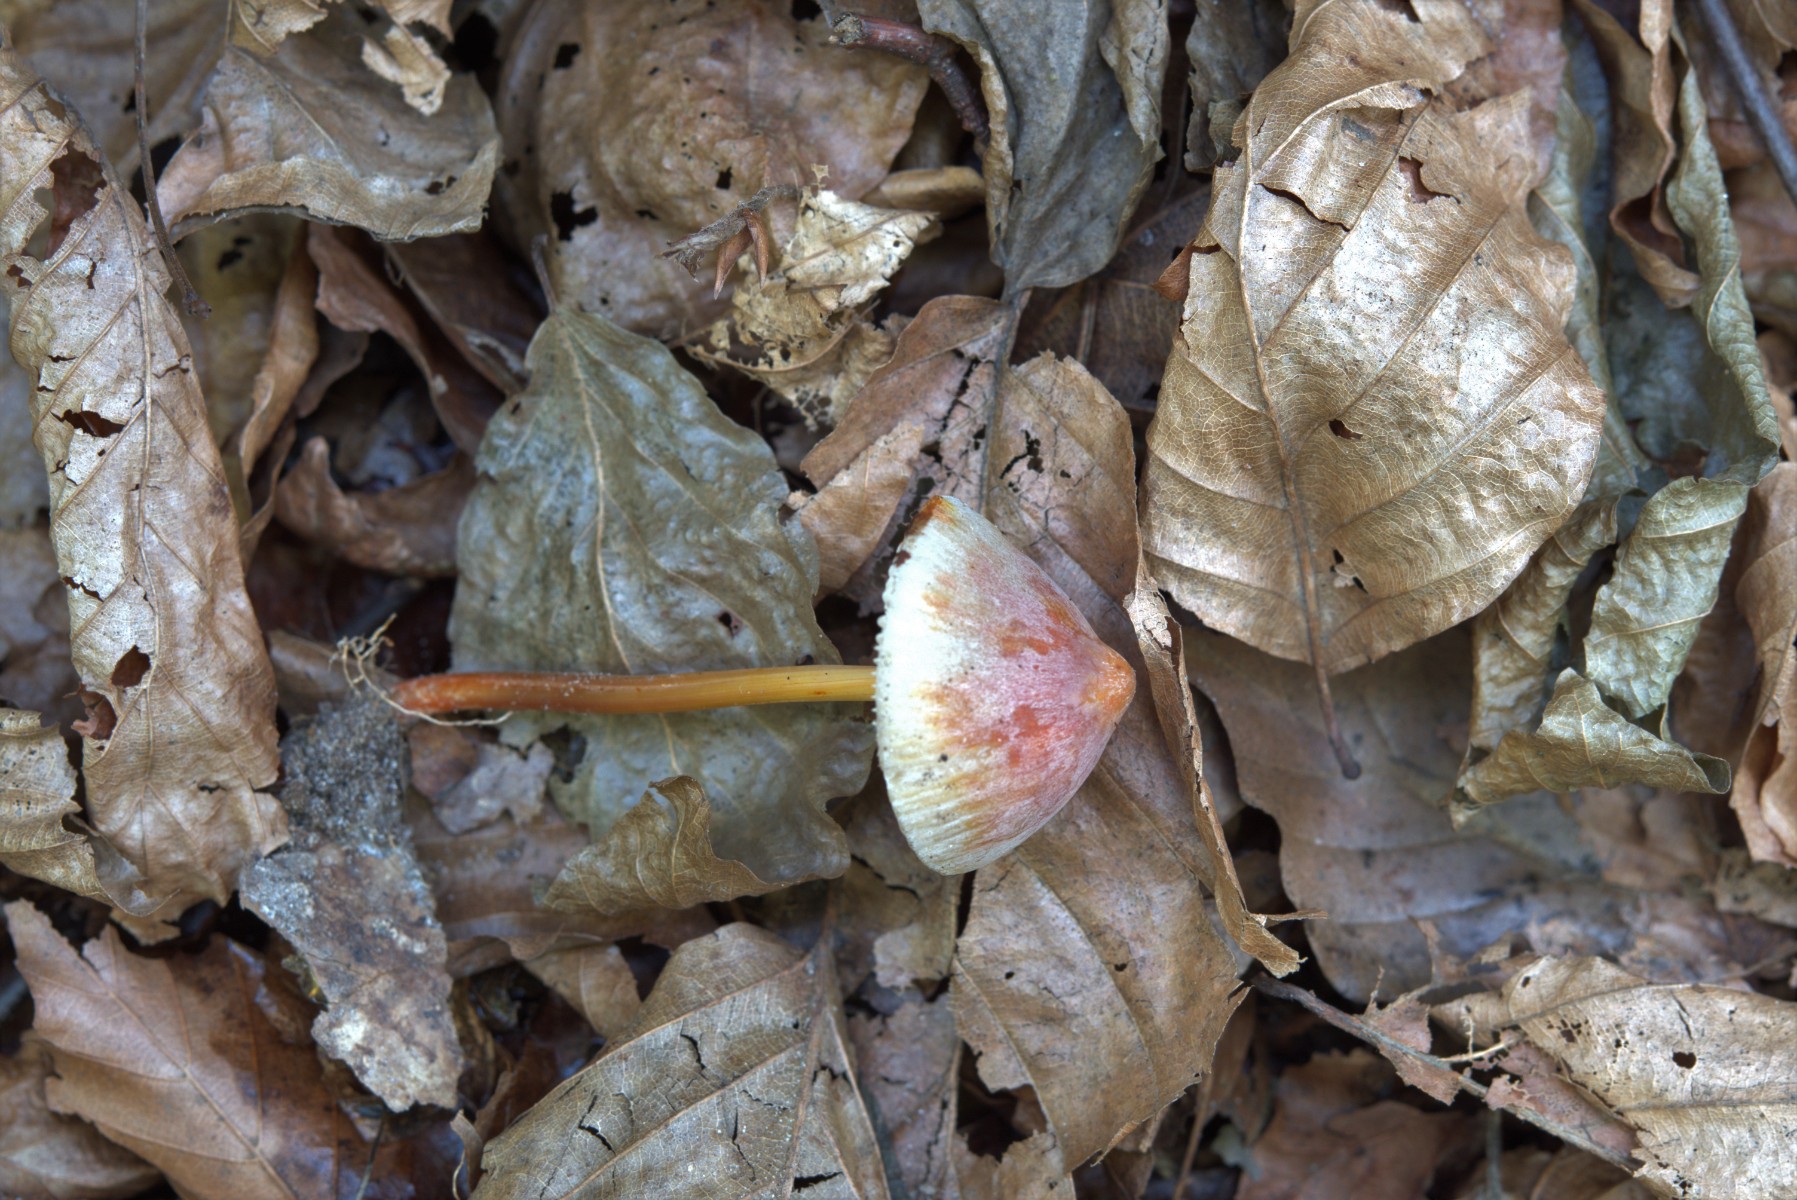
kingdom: Fungi
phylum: Basidiomycota
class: Agaricomycetes
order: Agaricales
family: Mycenaceae
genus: Mycena
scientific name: Mycena crocata
